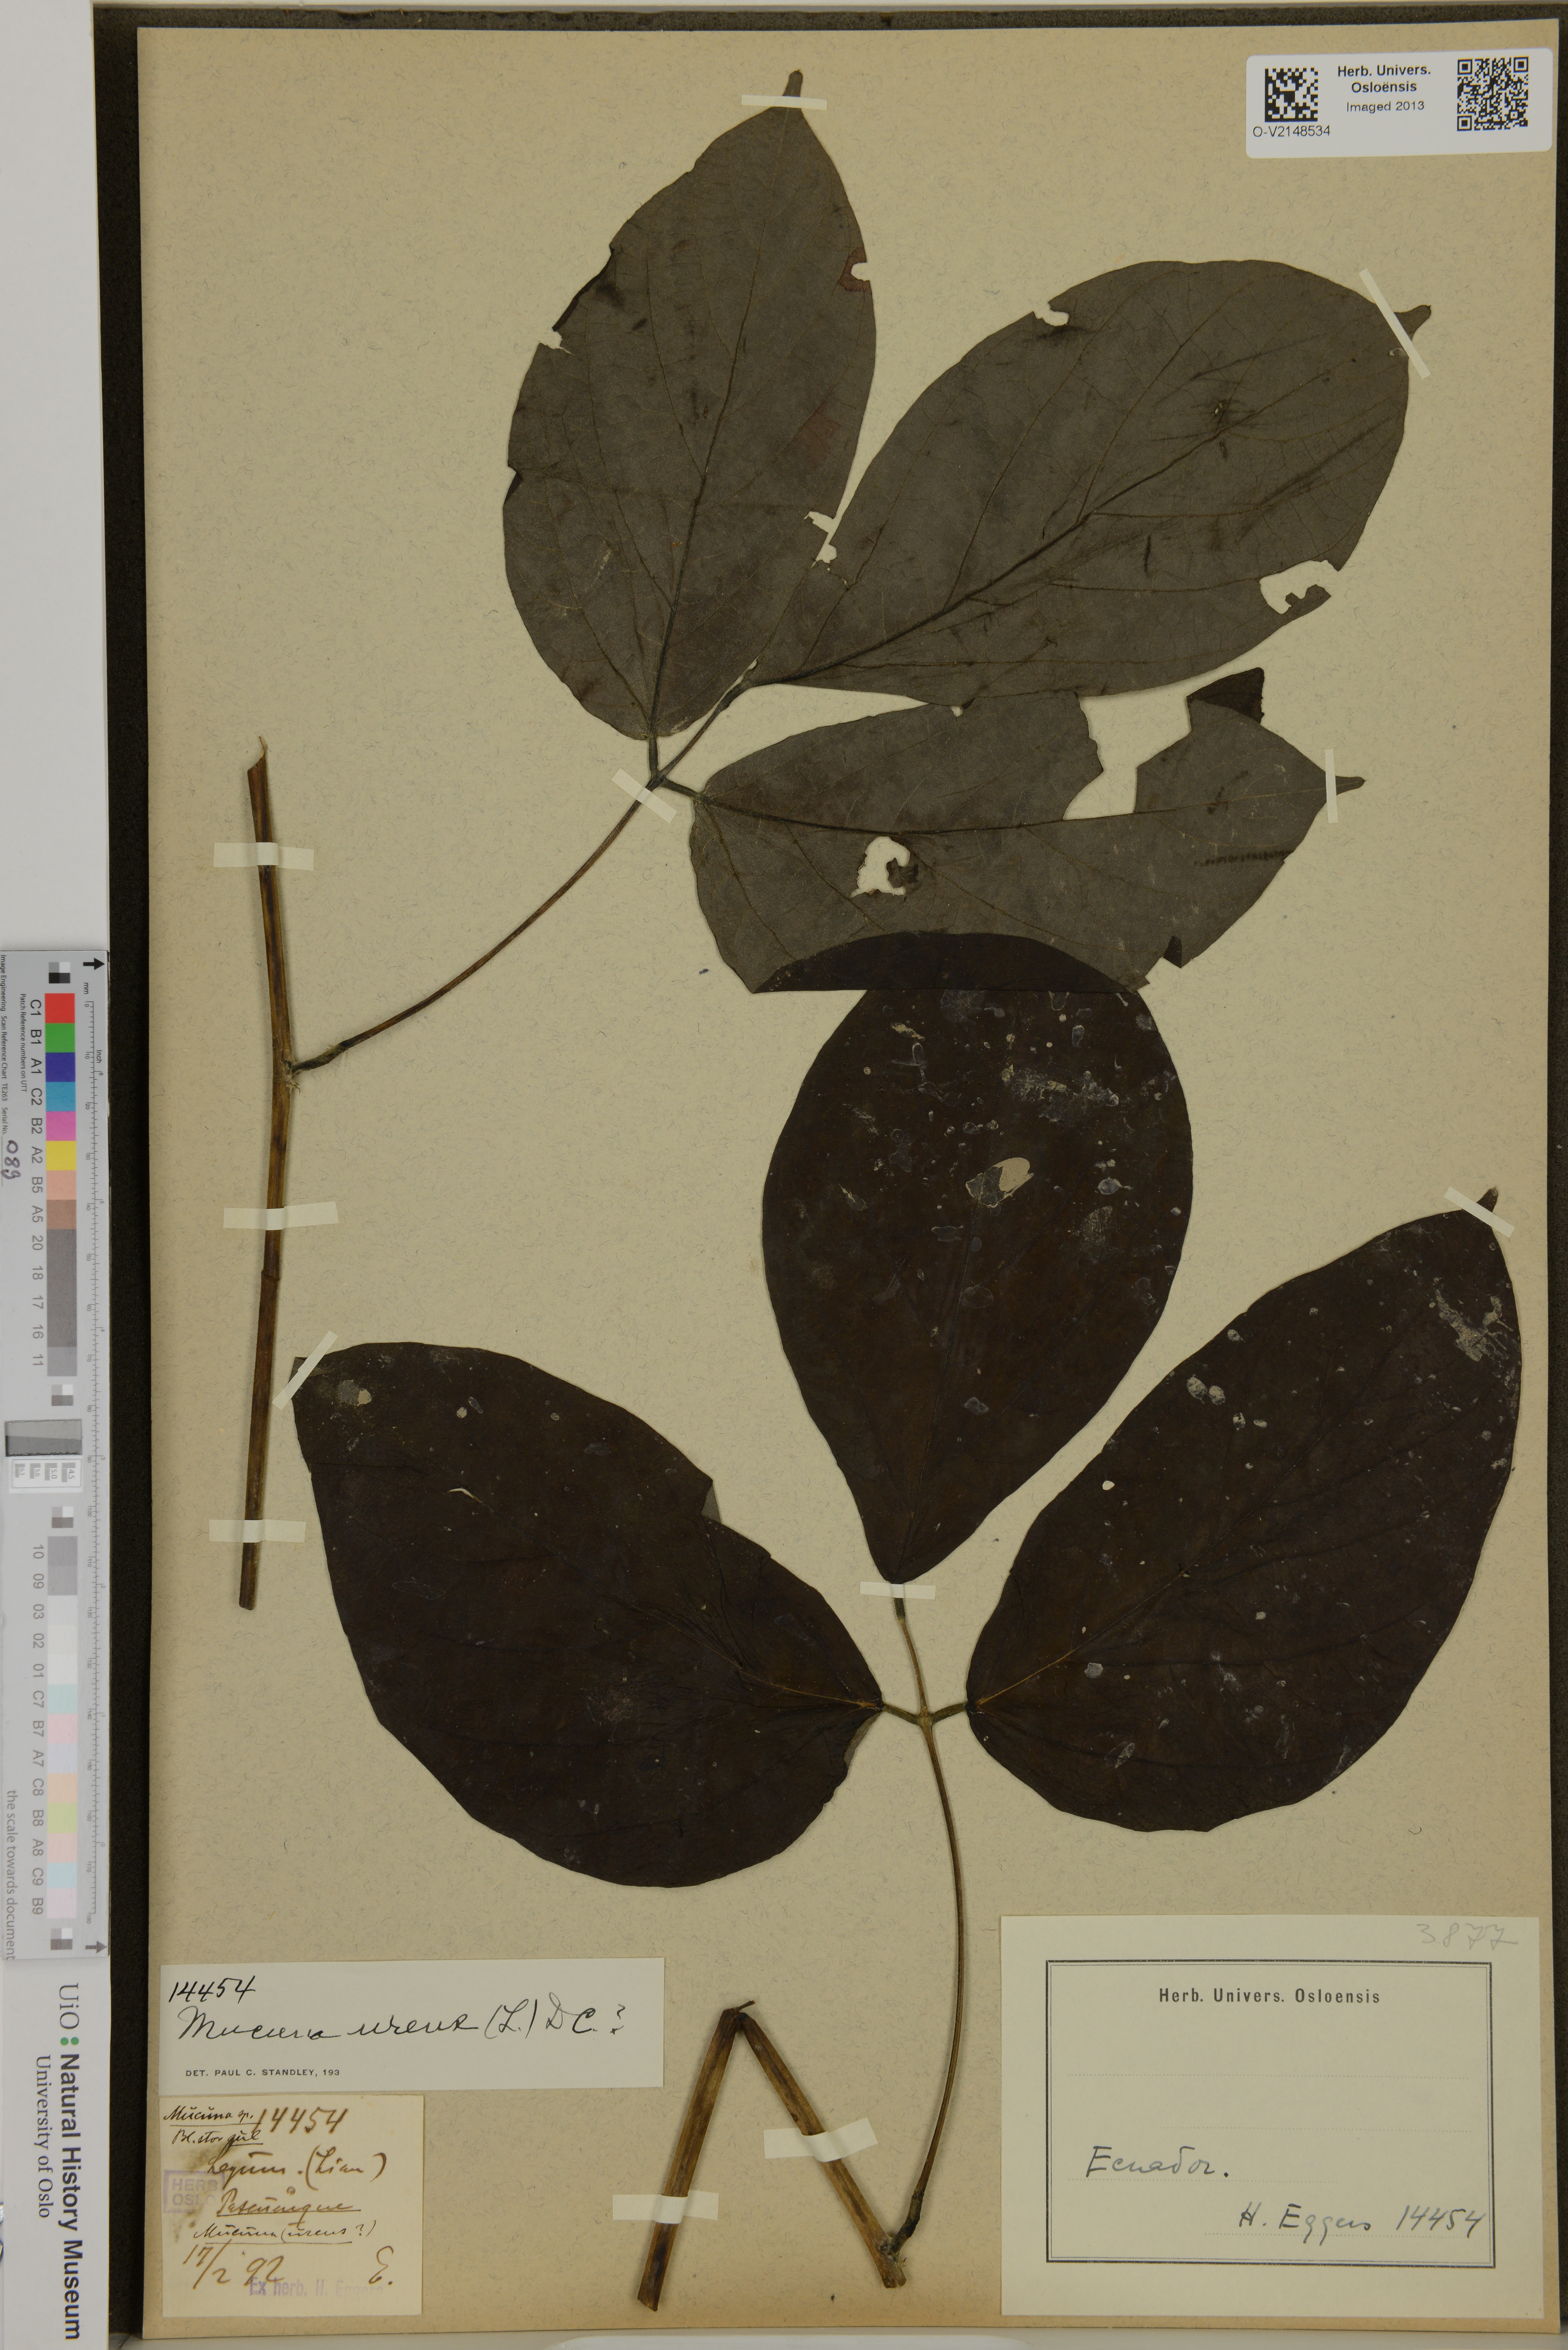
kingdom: Plantae
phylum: Tracheophyta
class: Magnoliopsida
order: Fabales
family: Fabaceae
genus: Mucuna
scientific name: Mucuna urens
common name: Red hamburger bean
